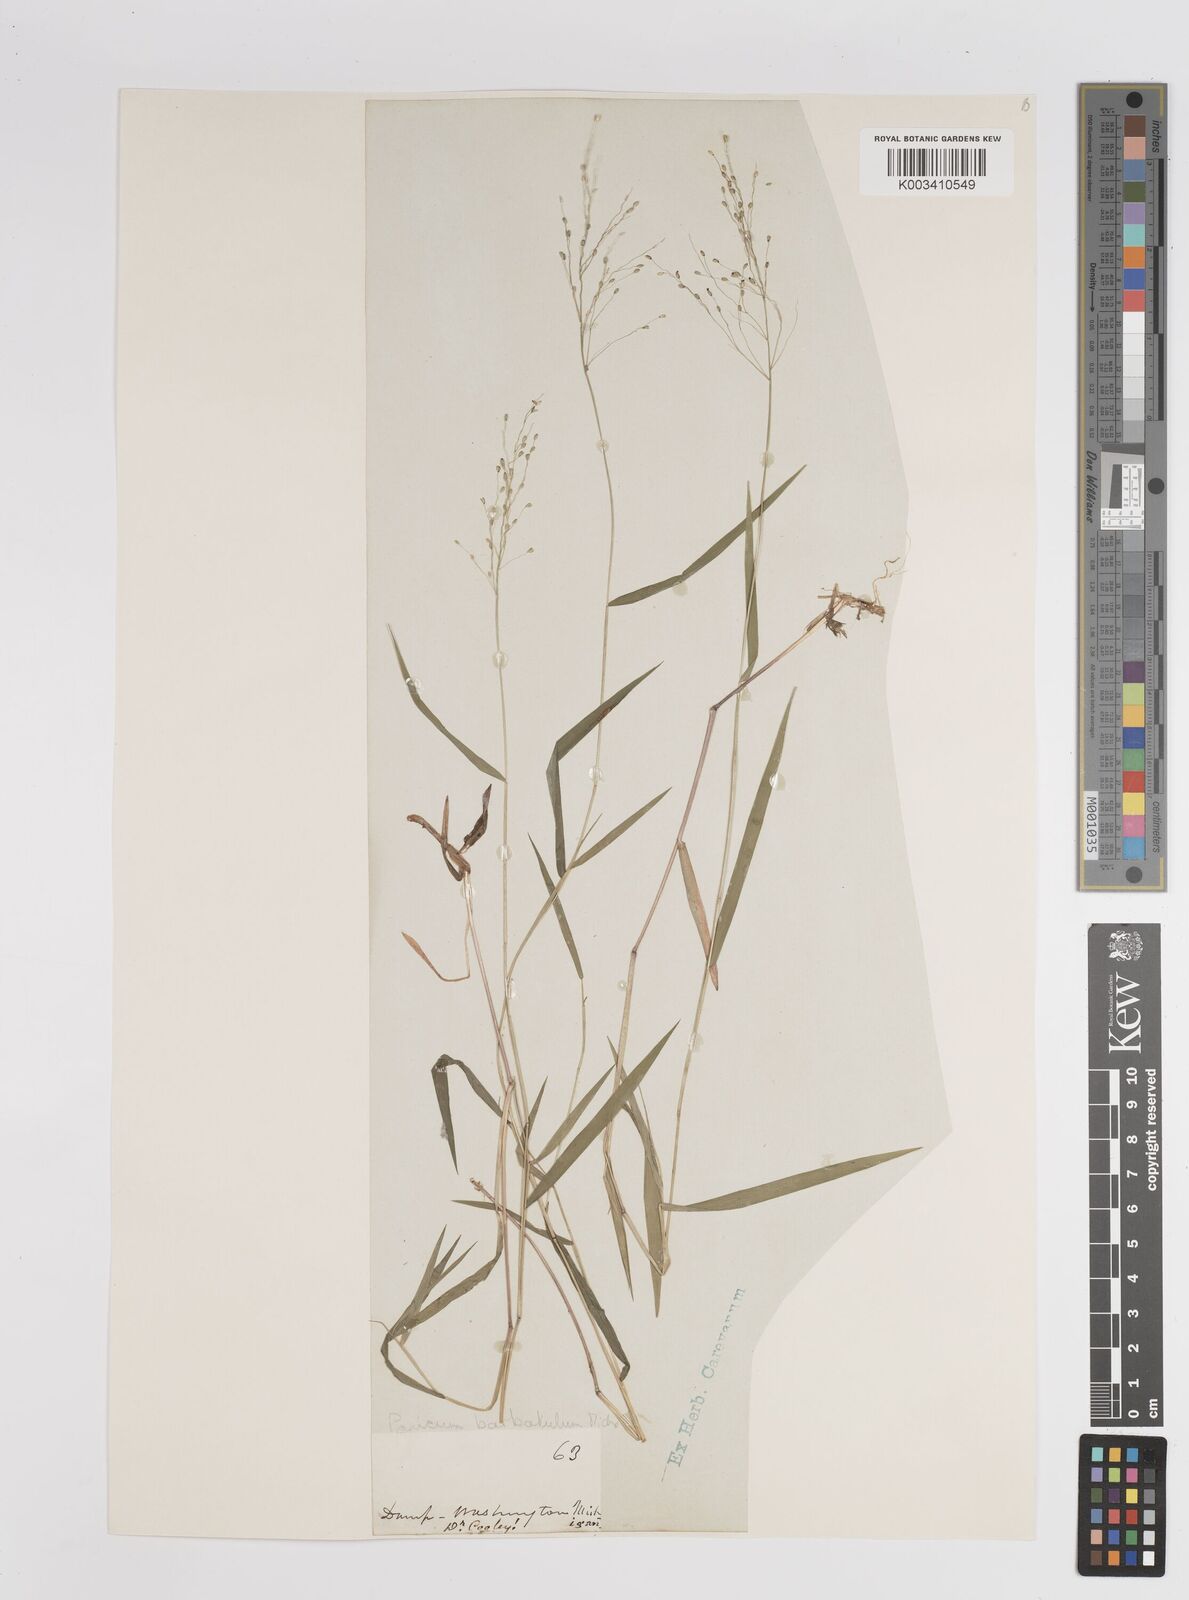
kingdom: Plantae
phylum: Tracheophyta
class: Liliopsida
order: Poales
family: Poaceae
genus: Dichanthelium
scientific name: Dichanthelium dichotomum
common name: Cypress panicgrass
